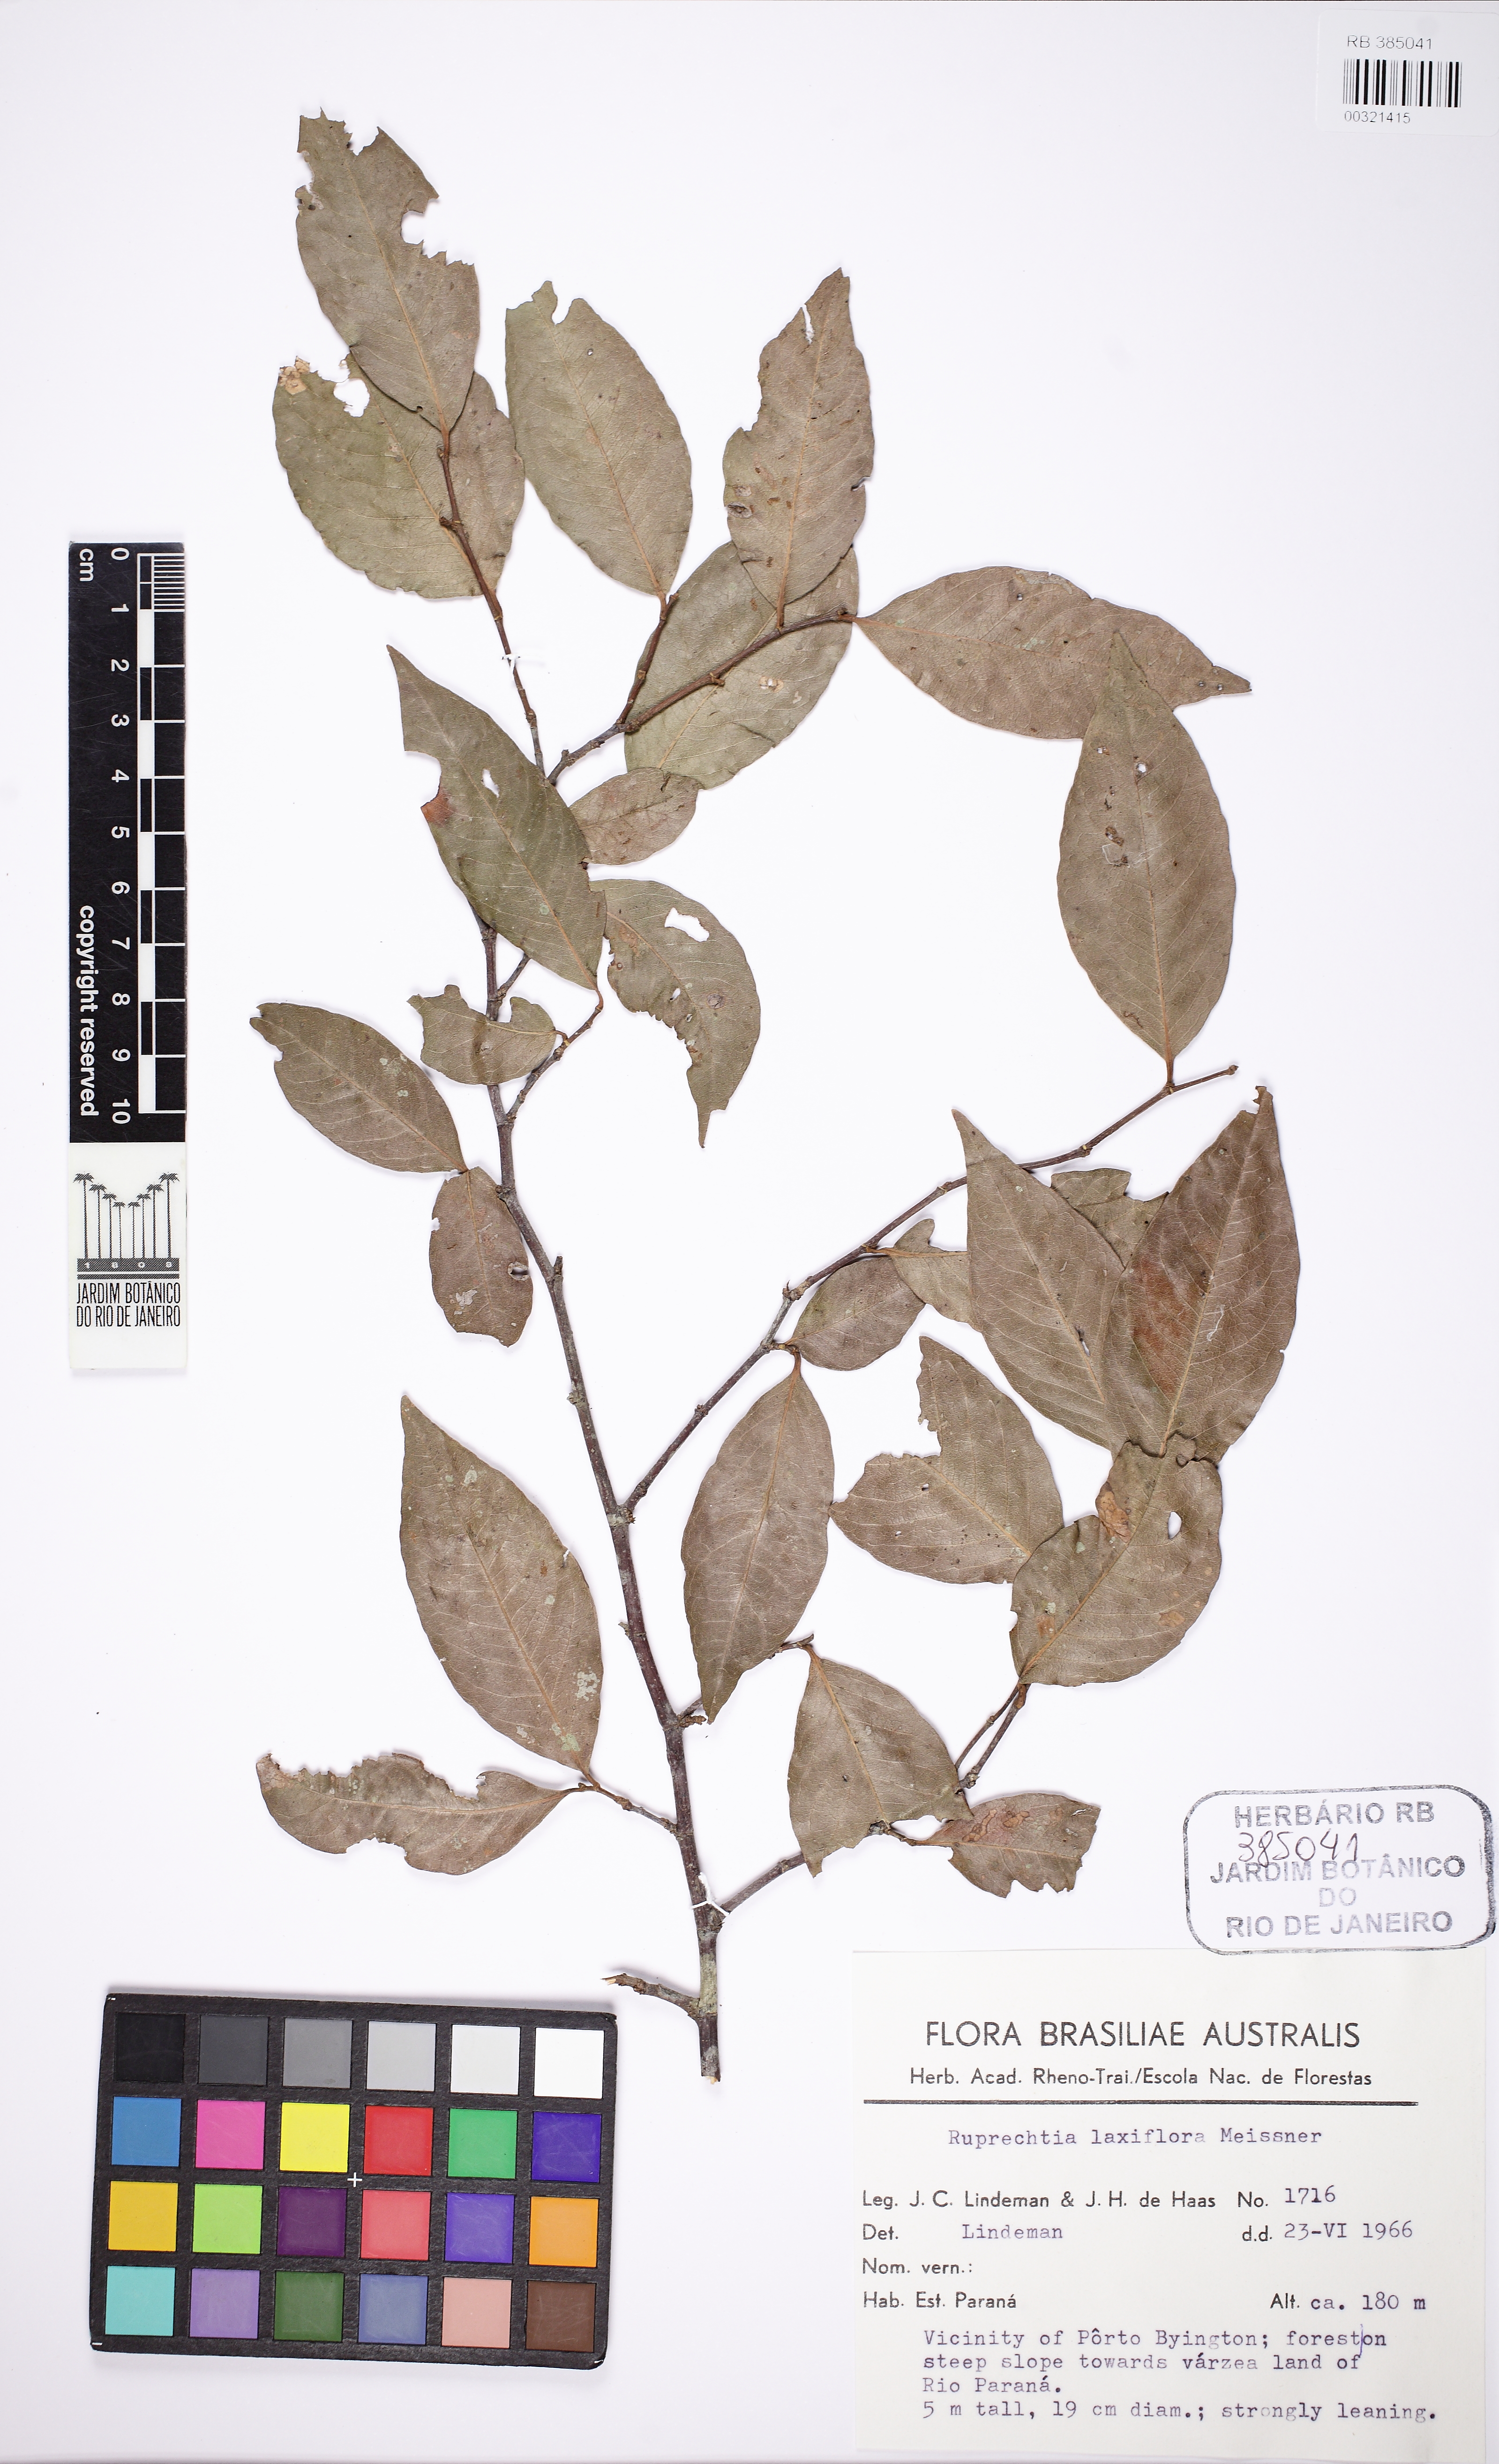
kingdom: Plantae
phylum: Tracheophyta
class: Magnoliopsida
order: Caryophyllales
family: Polygonaceae
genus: Ruprechtia
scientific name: Ruprechtia laxiflora
